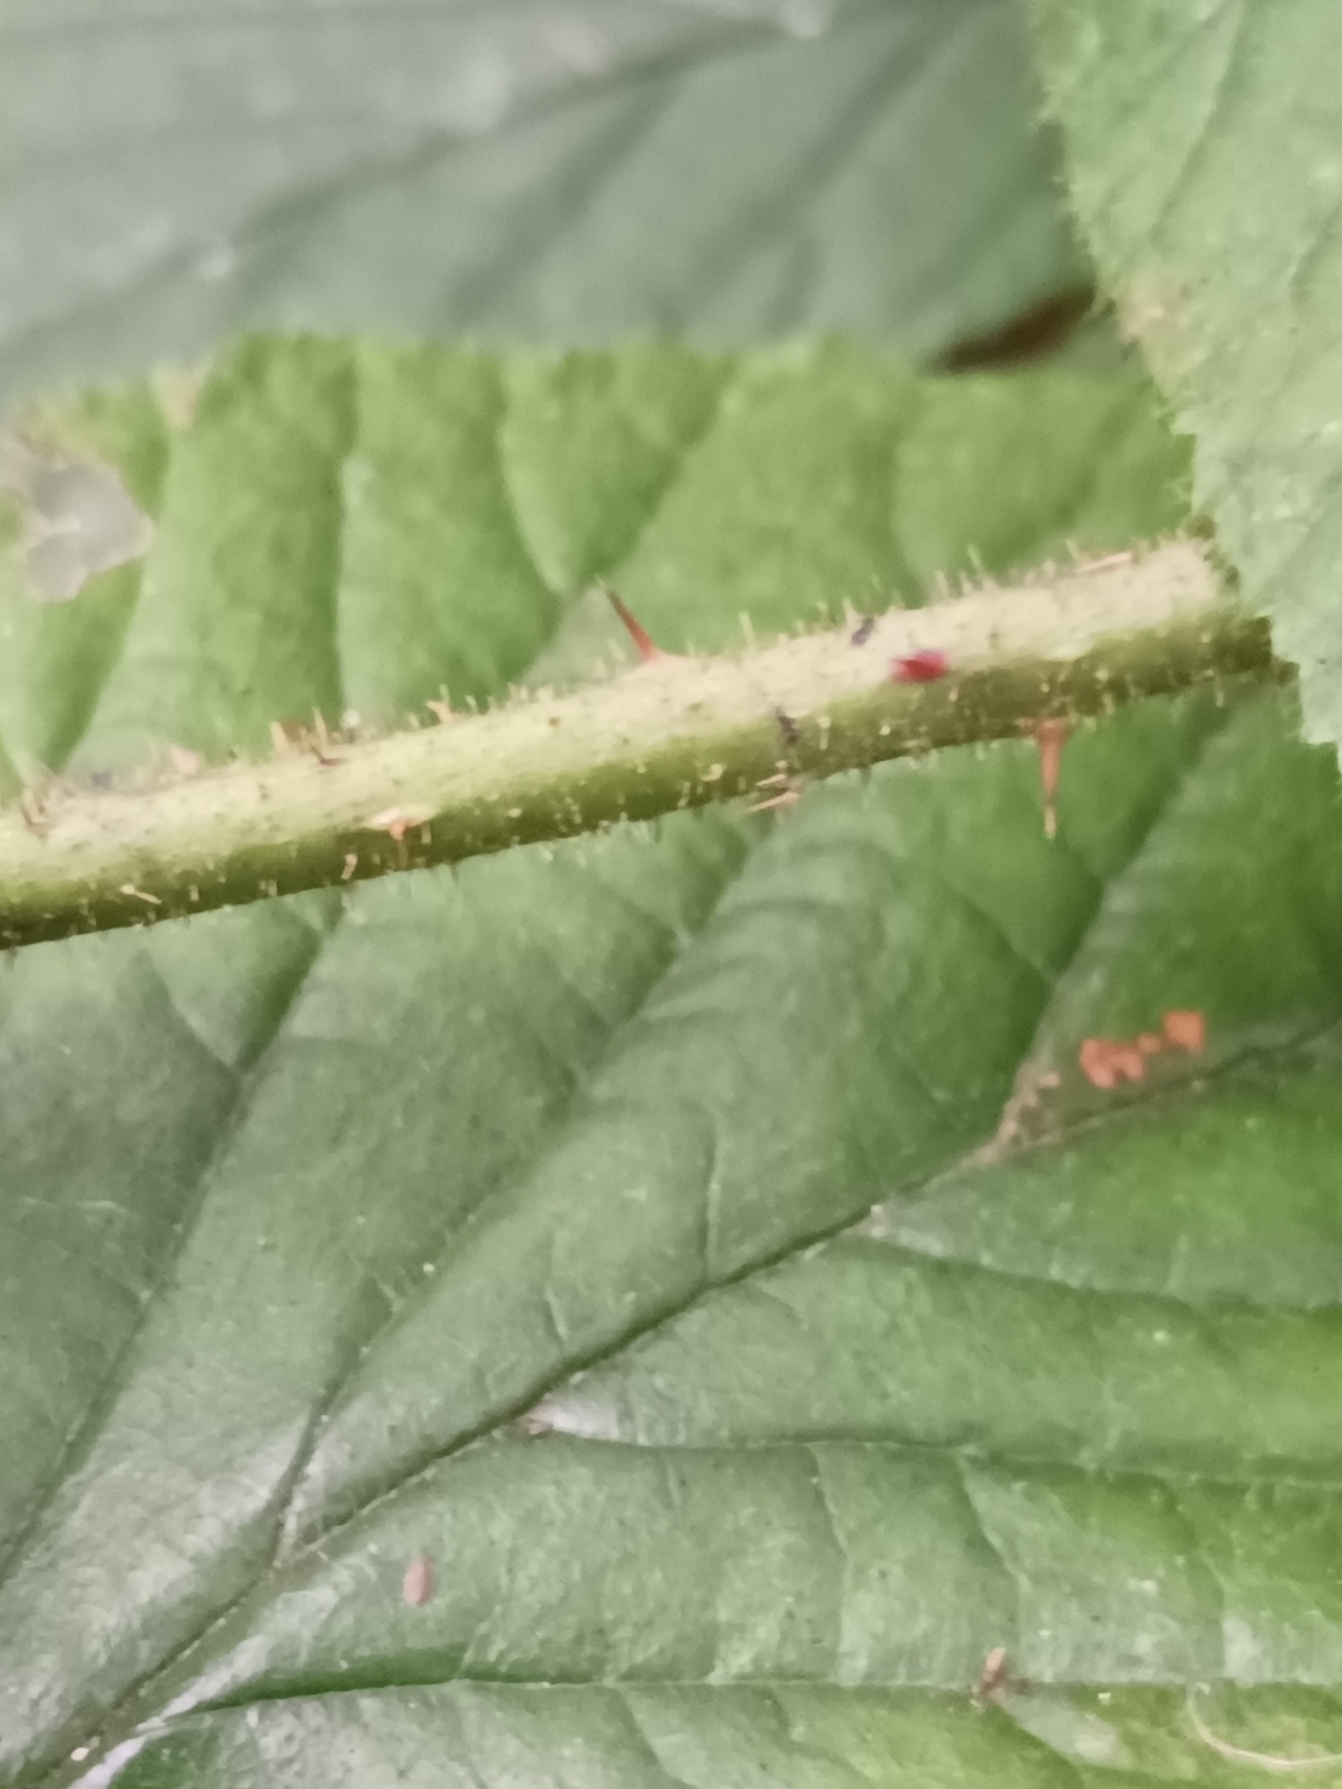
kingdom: Plantae
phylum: Tracheophyta
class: Magnoliopsida
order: Rosales
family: Rosaceae
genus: Rubus
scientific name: Rubus nigricans
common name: Trebladet brombær
